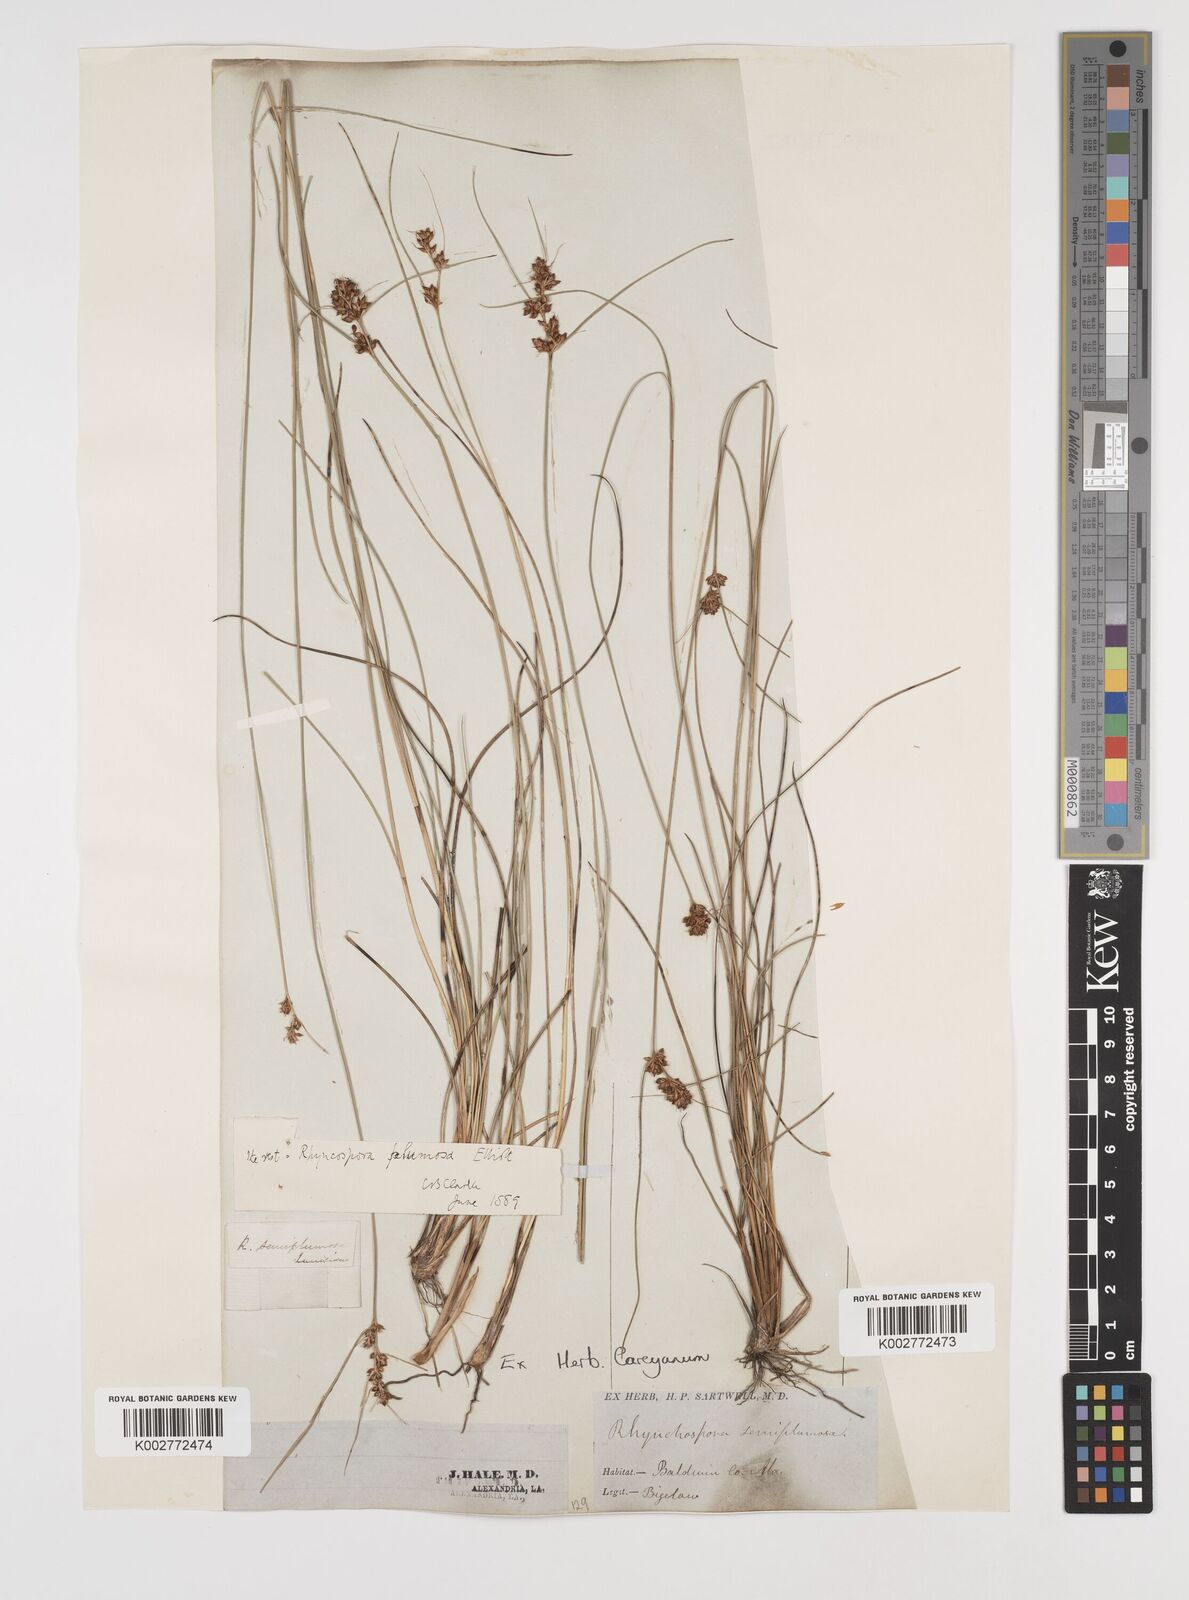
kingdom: Plantae
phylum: Tracheophyta
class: Liliopsida
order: Poales
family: Cyperaceae
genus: Rhynchospora
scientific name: Rhynchospora plumosa
